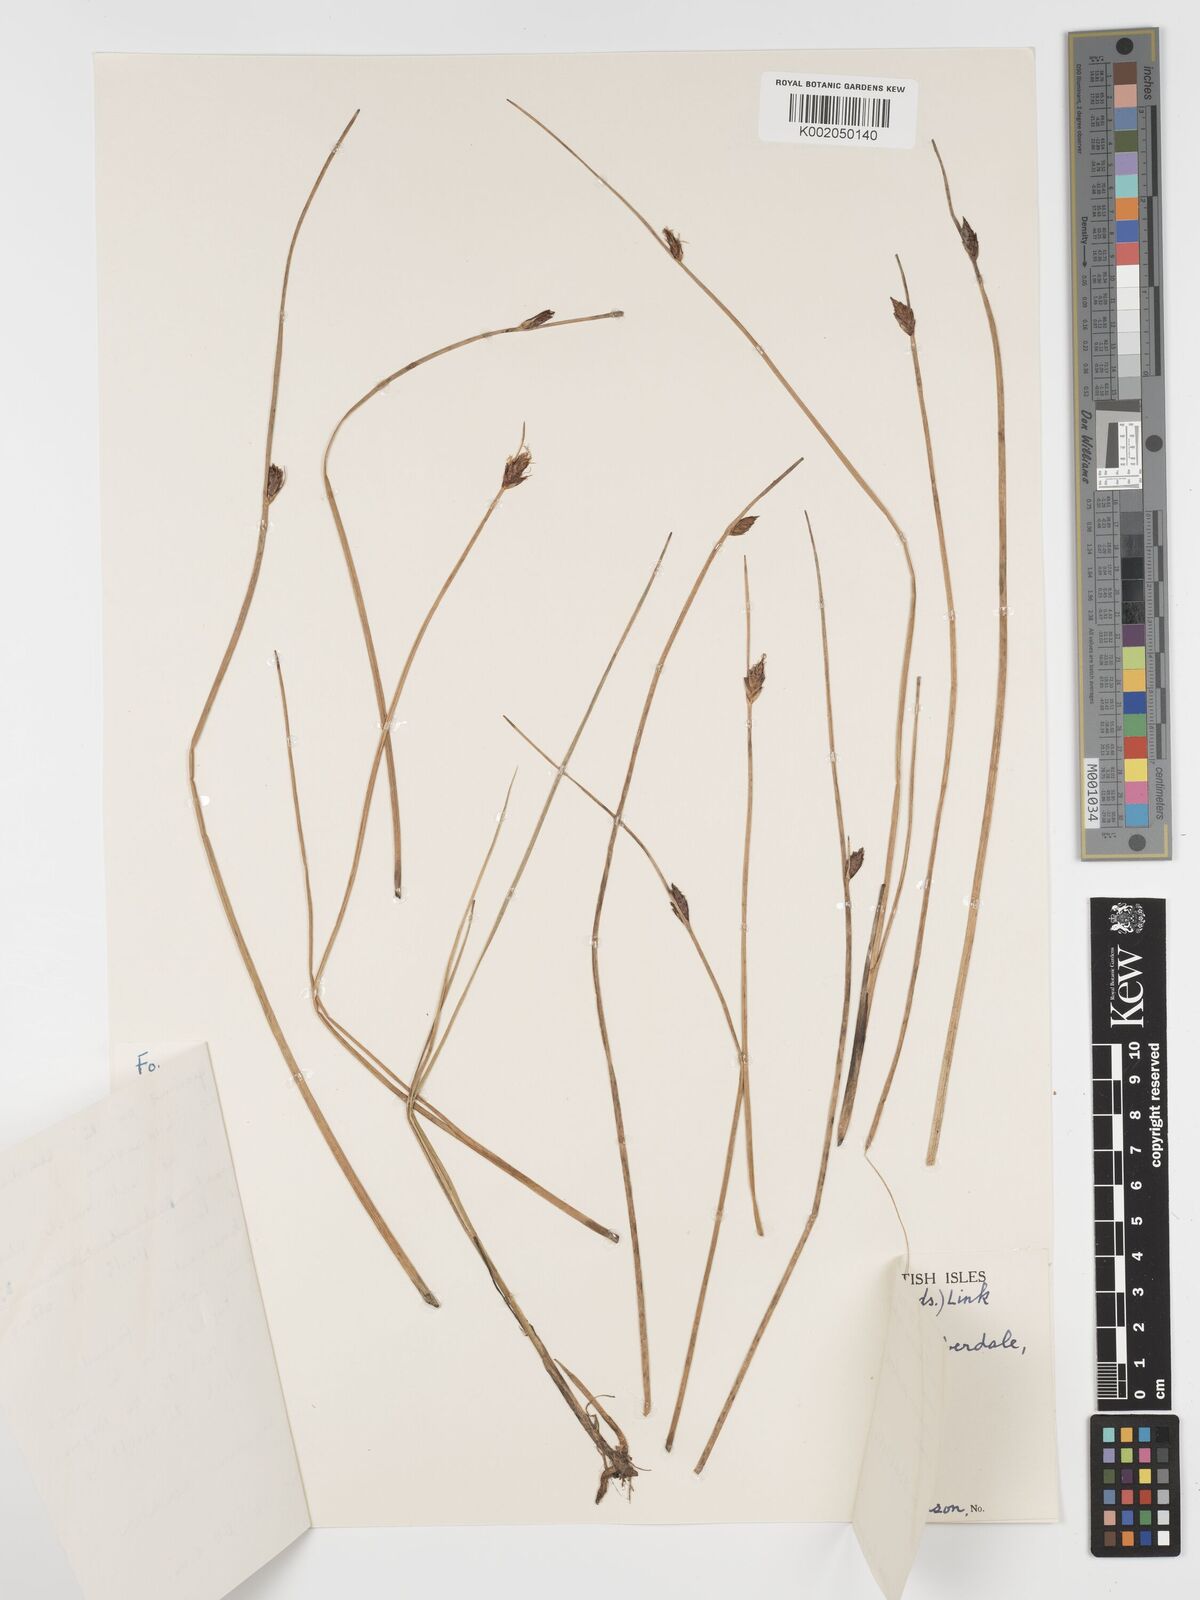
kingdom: Plantae
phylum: Tracheophyta
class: Liliopsida
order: Poales
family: Cyperaceae
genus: Blysmus
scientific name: Blysmus rufus
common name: Saltmarsh flat-sedge
